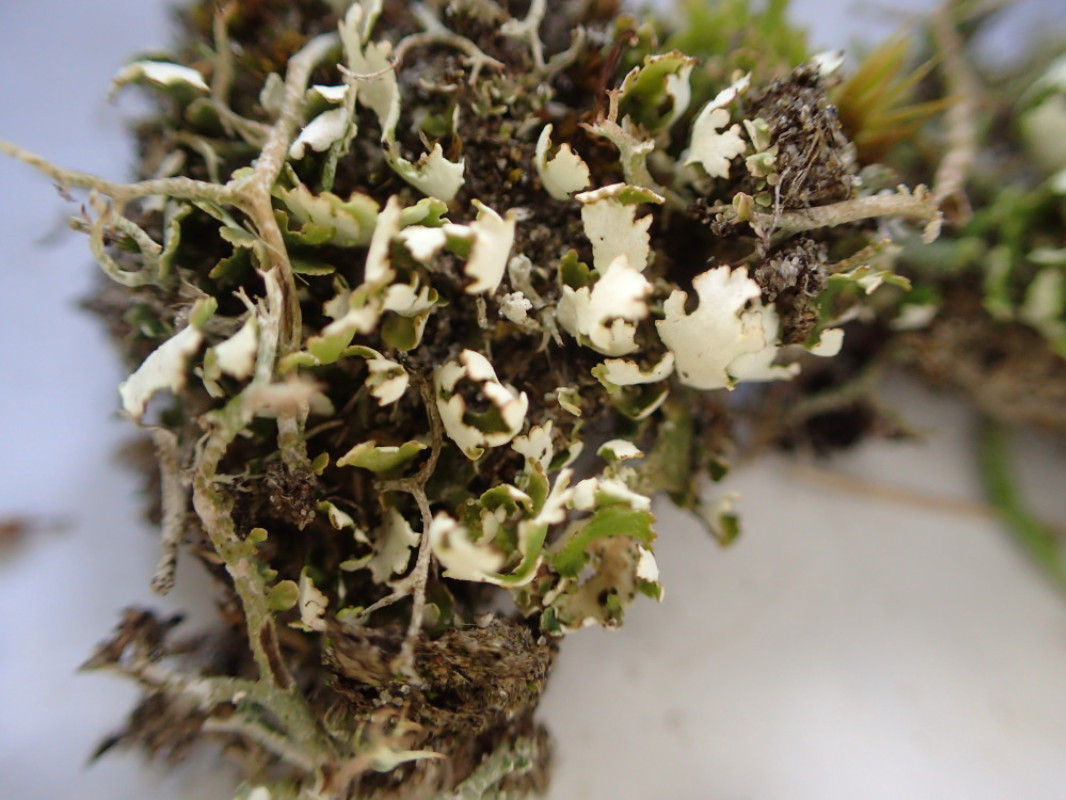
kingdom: Fungi
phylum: Ascomycota
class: Lecanoromycetes
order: Lecanorales
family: Cladoniaceae
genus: Cladonia
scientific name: Cladonia foliacea
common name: fliget bægerlav
